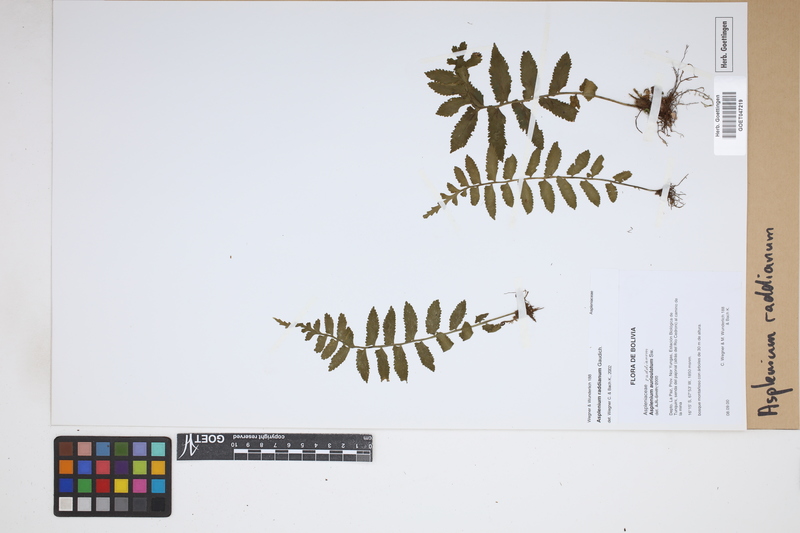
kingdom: Plantae
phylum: Tracheophyta
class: Polypodiopsida
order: Polypodiales
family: Aspleniaceae
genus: Asplenium
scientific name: Asplenium raddianum
